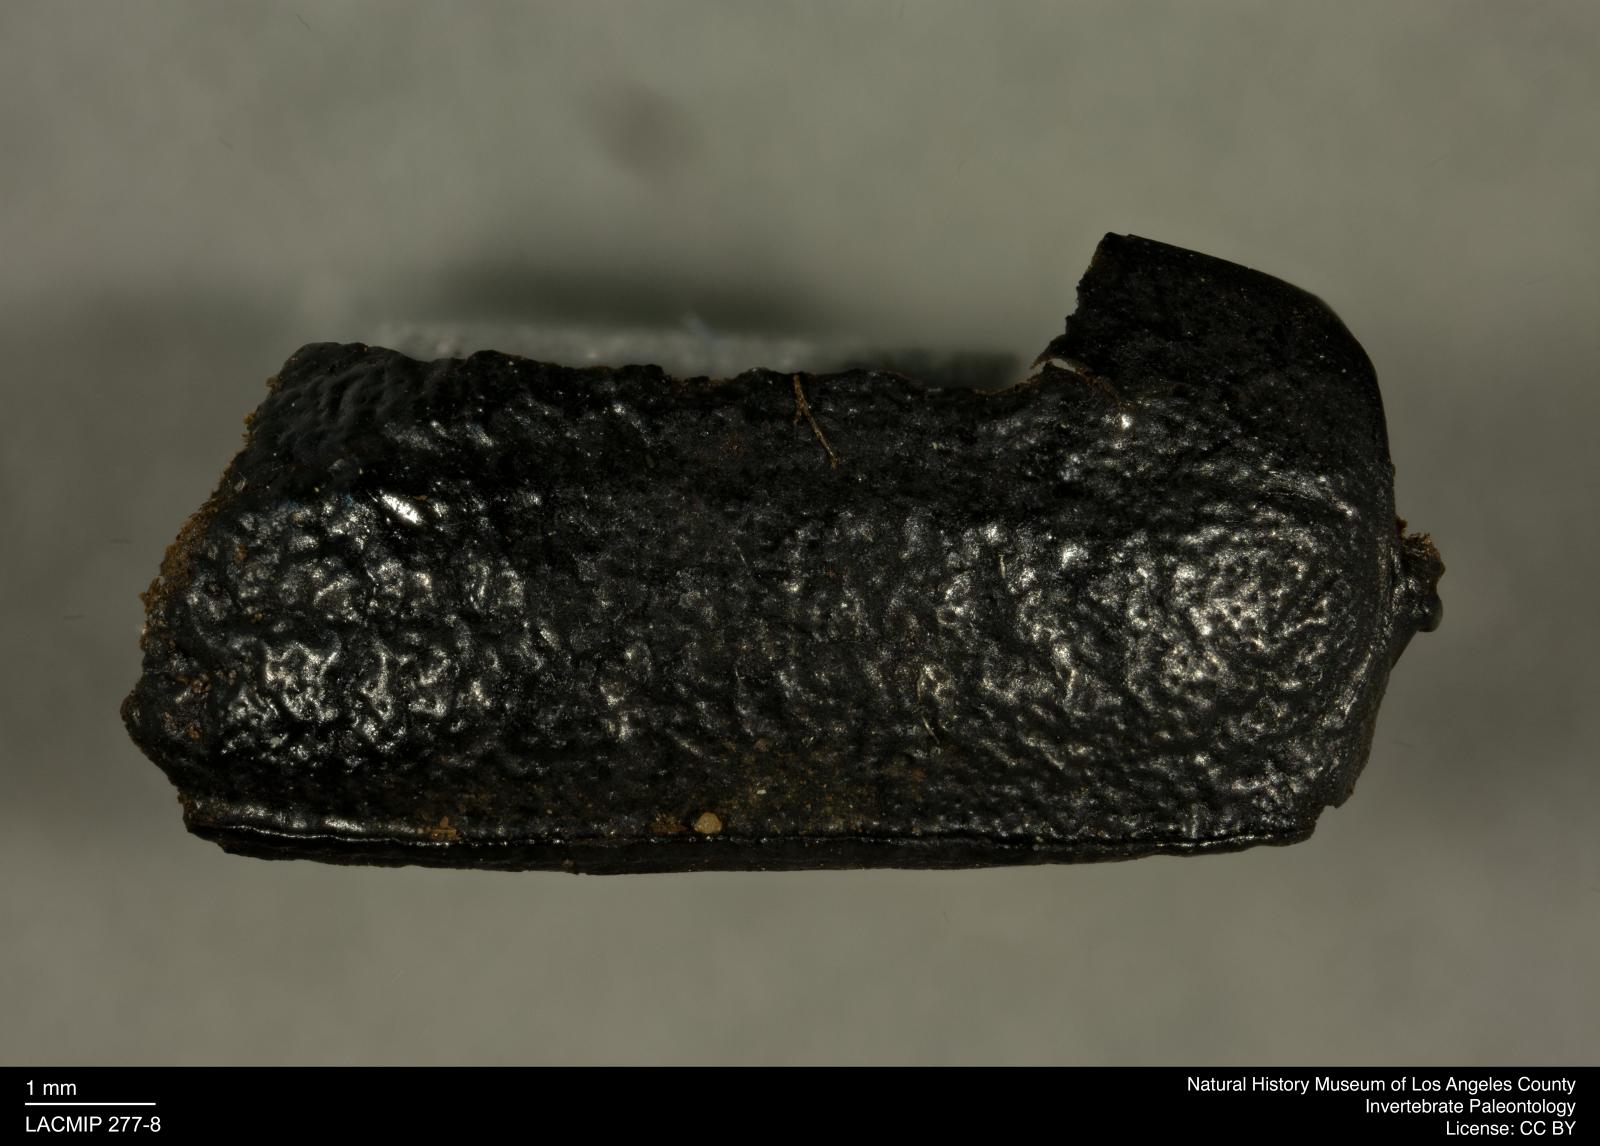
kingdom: Animalia
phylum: Arthropoda
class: Insecta
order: Coleoptera
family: Tenebrionidae
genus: Coniontis
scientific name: Coniontis abdominalis
